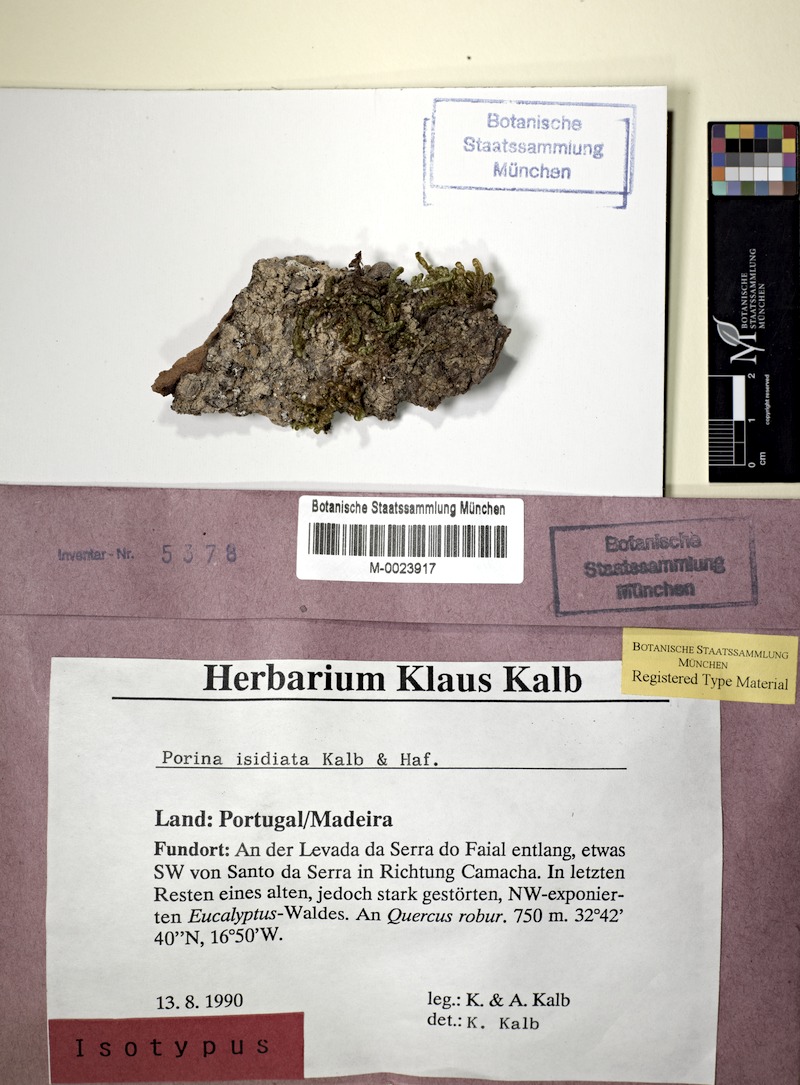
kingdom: Fungi
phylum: Ascomycota
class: Lecanoromycetes
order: Ostropales
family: Porinaceae
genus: Porina
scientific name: Porina isidiata
